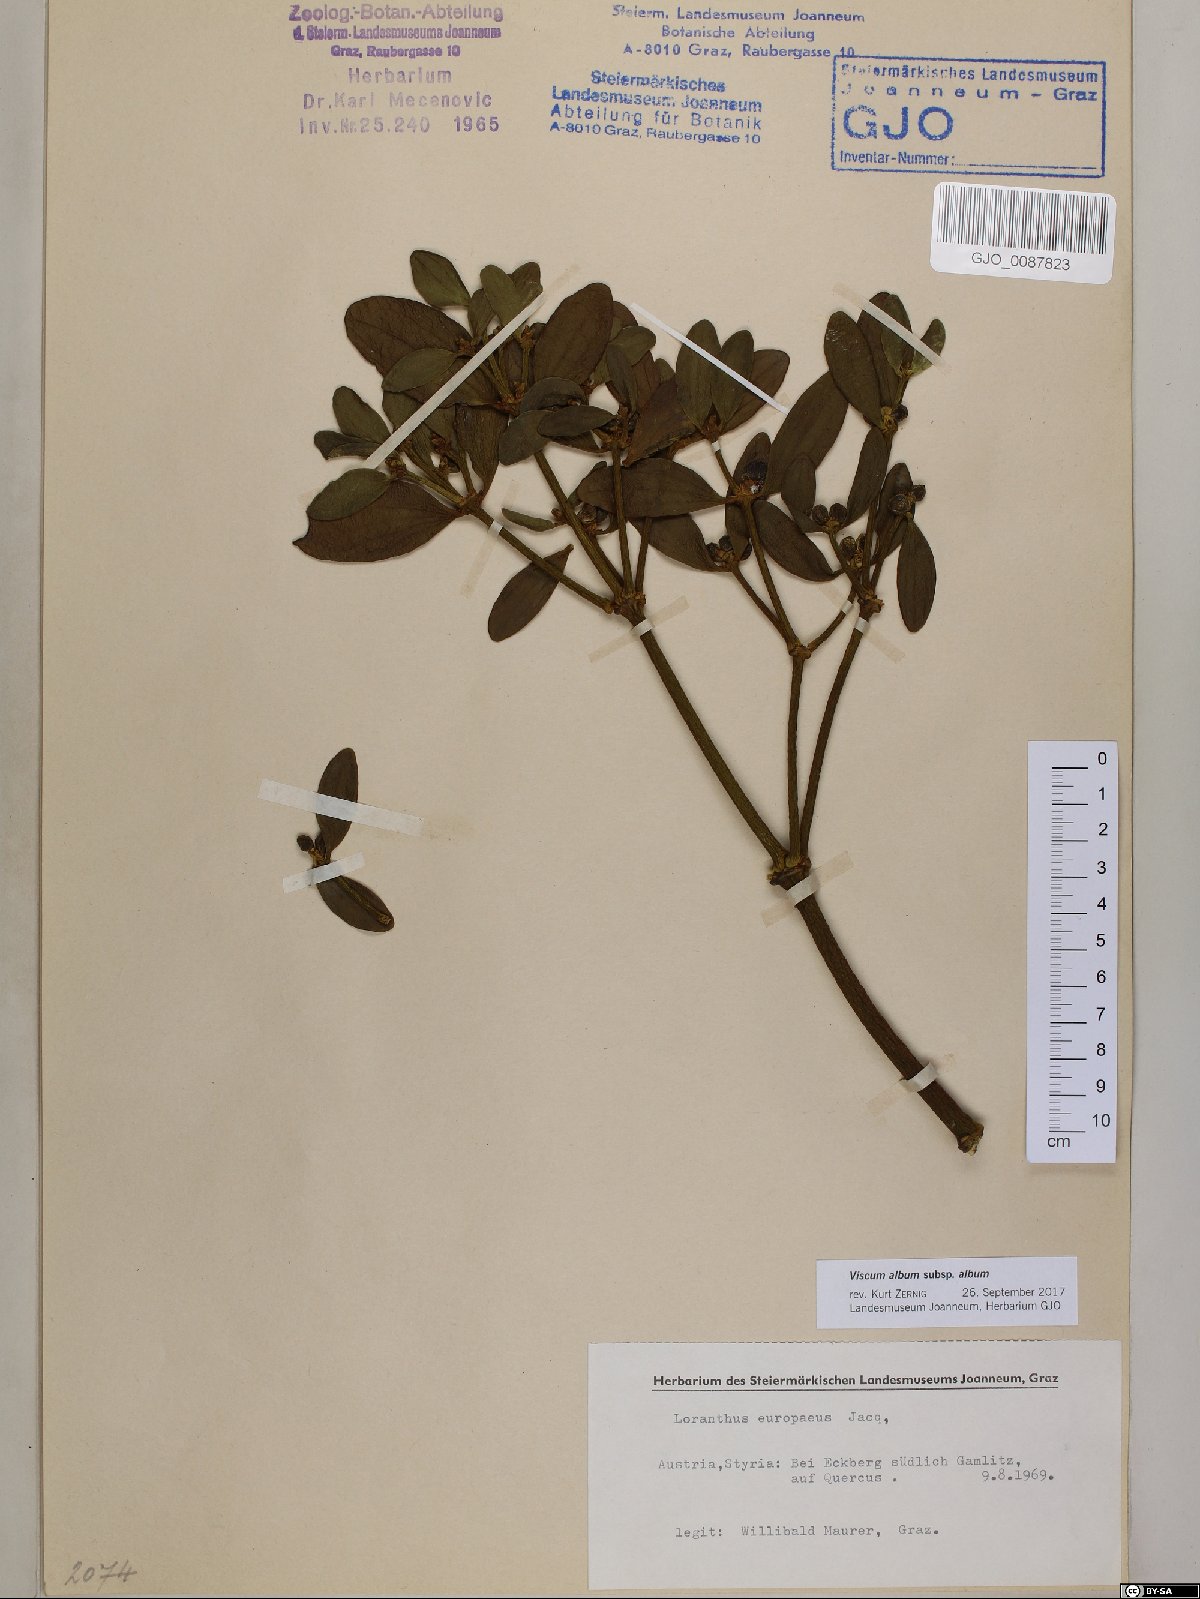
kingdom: Plantae
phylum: Tracheophyta
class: Magnoliopsida
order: Santalales
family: Viscaceae
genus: Viscum
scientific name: Viscum album
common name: Mistletoe
